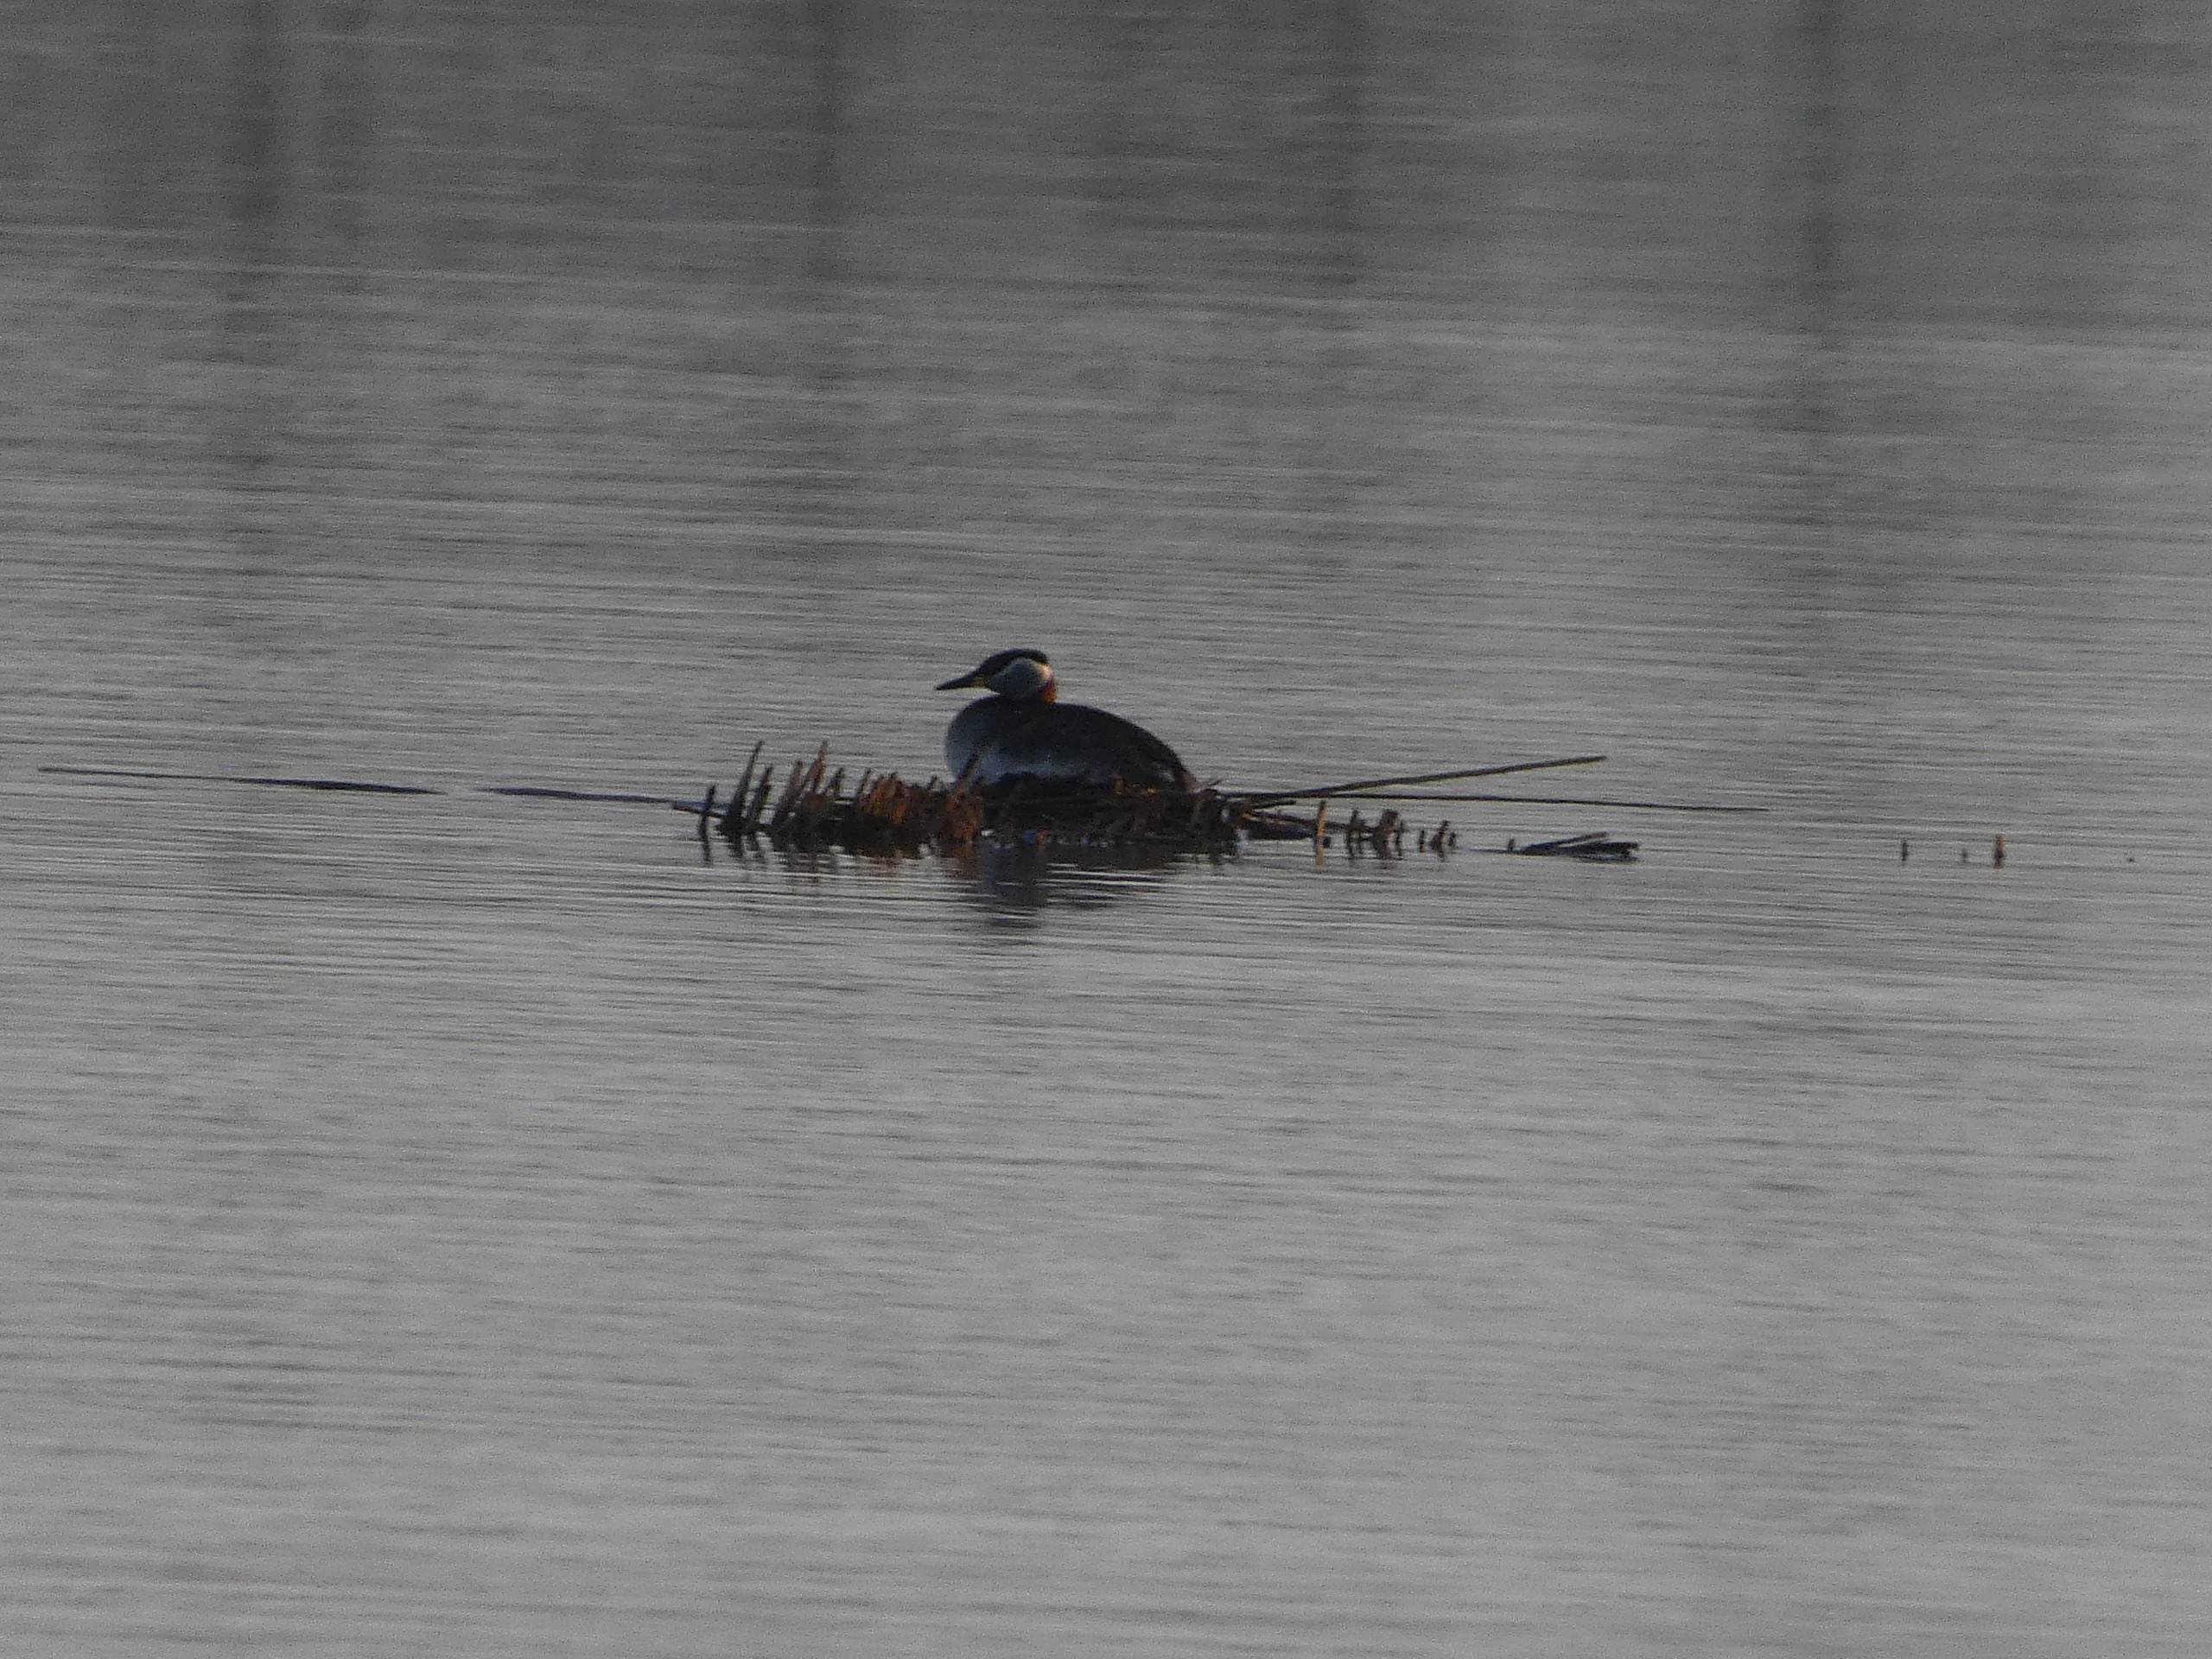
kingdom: Animalia
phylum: Chordata
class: Aves
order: Podicipediformes
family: Podicipedidae
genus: Podiceps
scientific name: Podiceps grisegena
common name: Gråstrubet lappedykker
